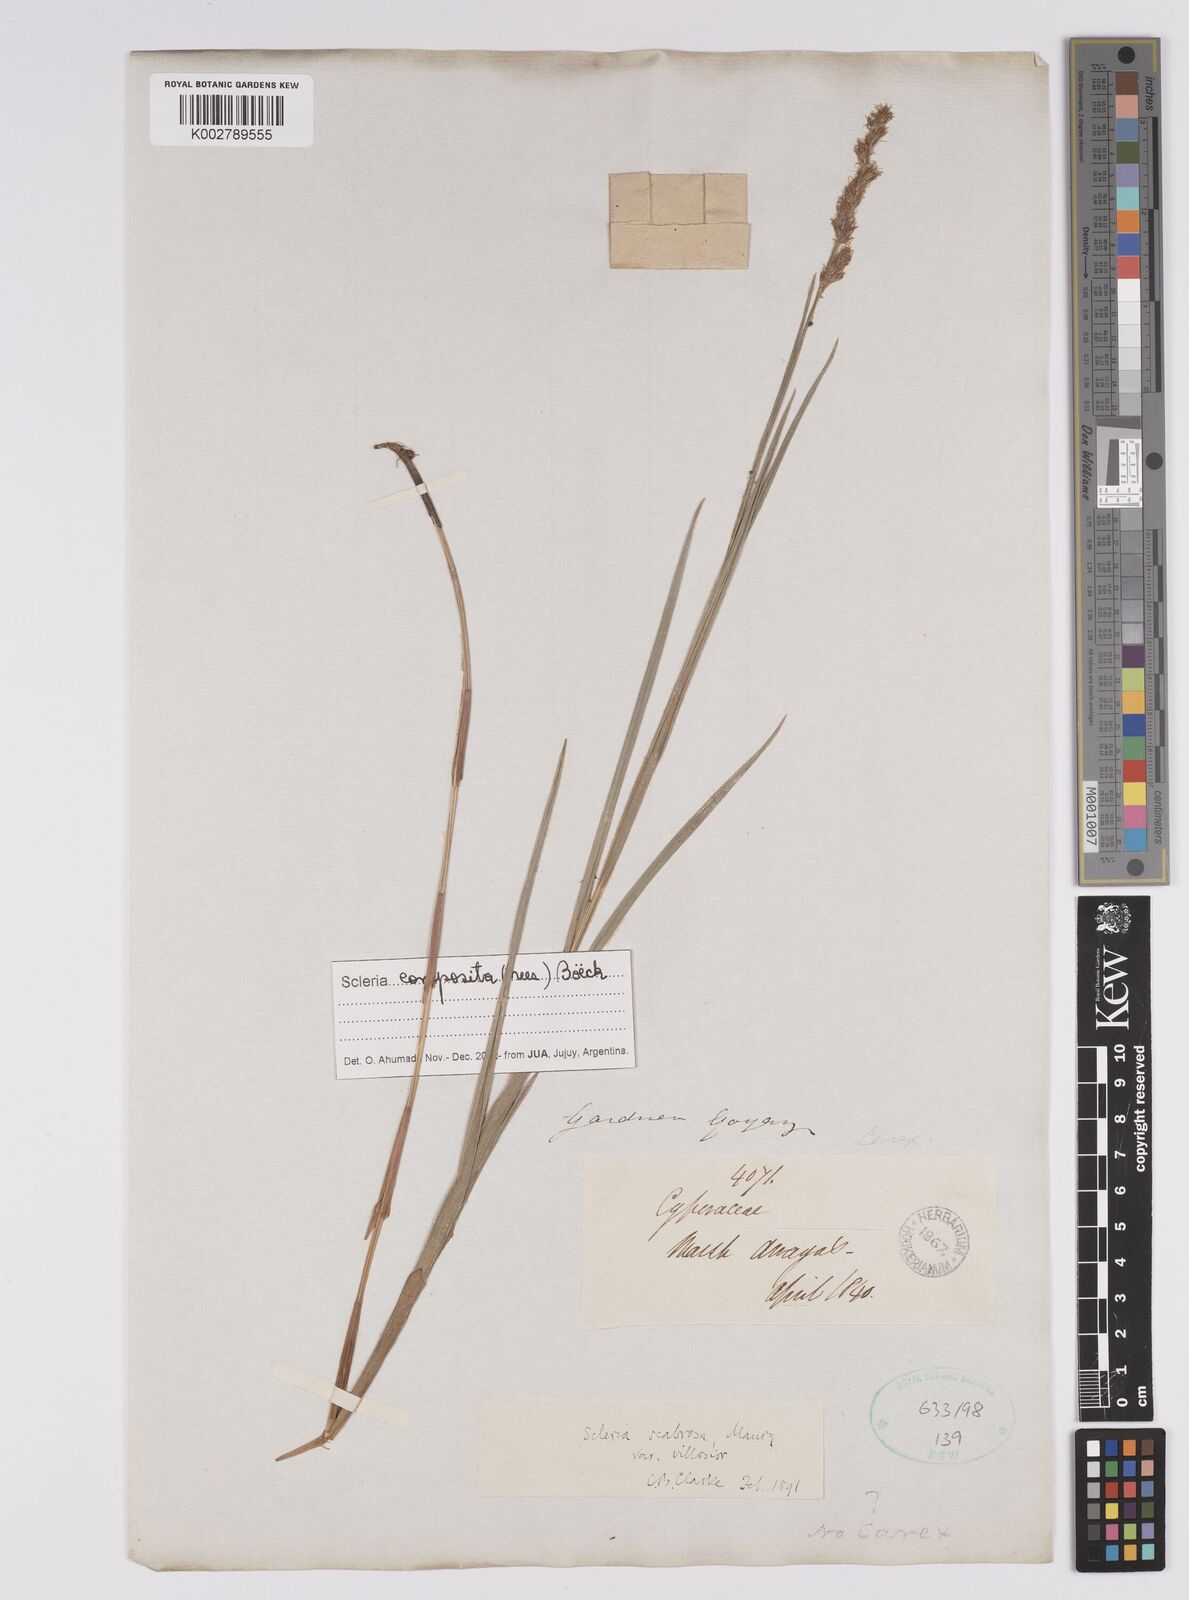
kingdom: Plantae
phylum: Tracheophyta
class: Liliopsida
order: Poales
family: Cyperaceae
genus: Scleria
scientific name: Scleria muehlenbergii
